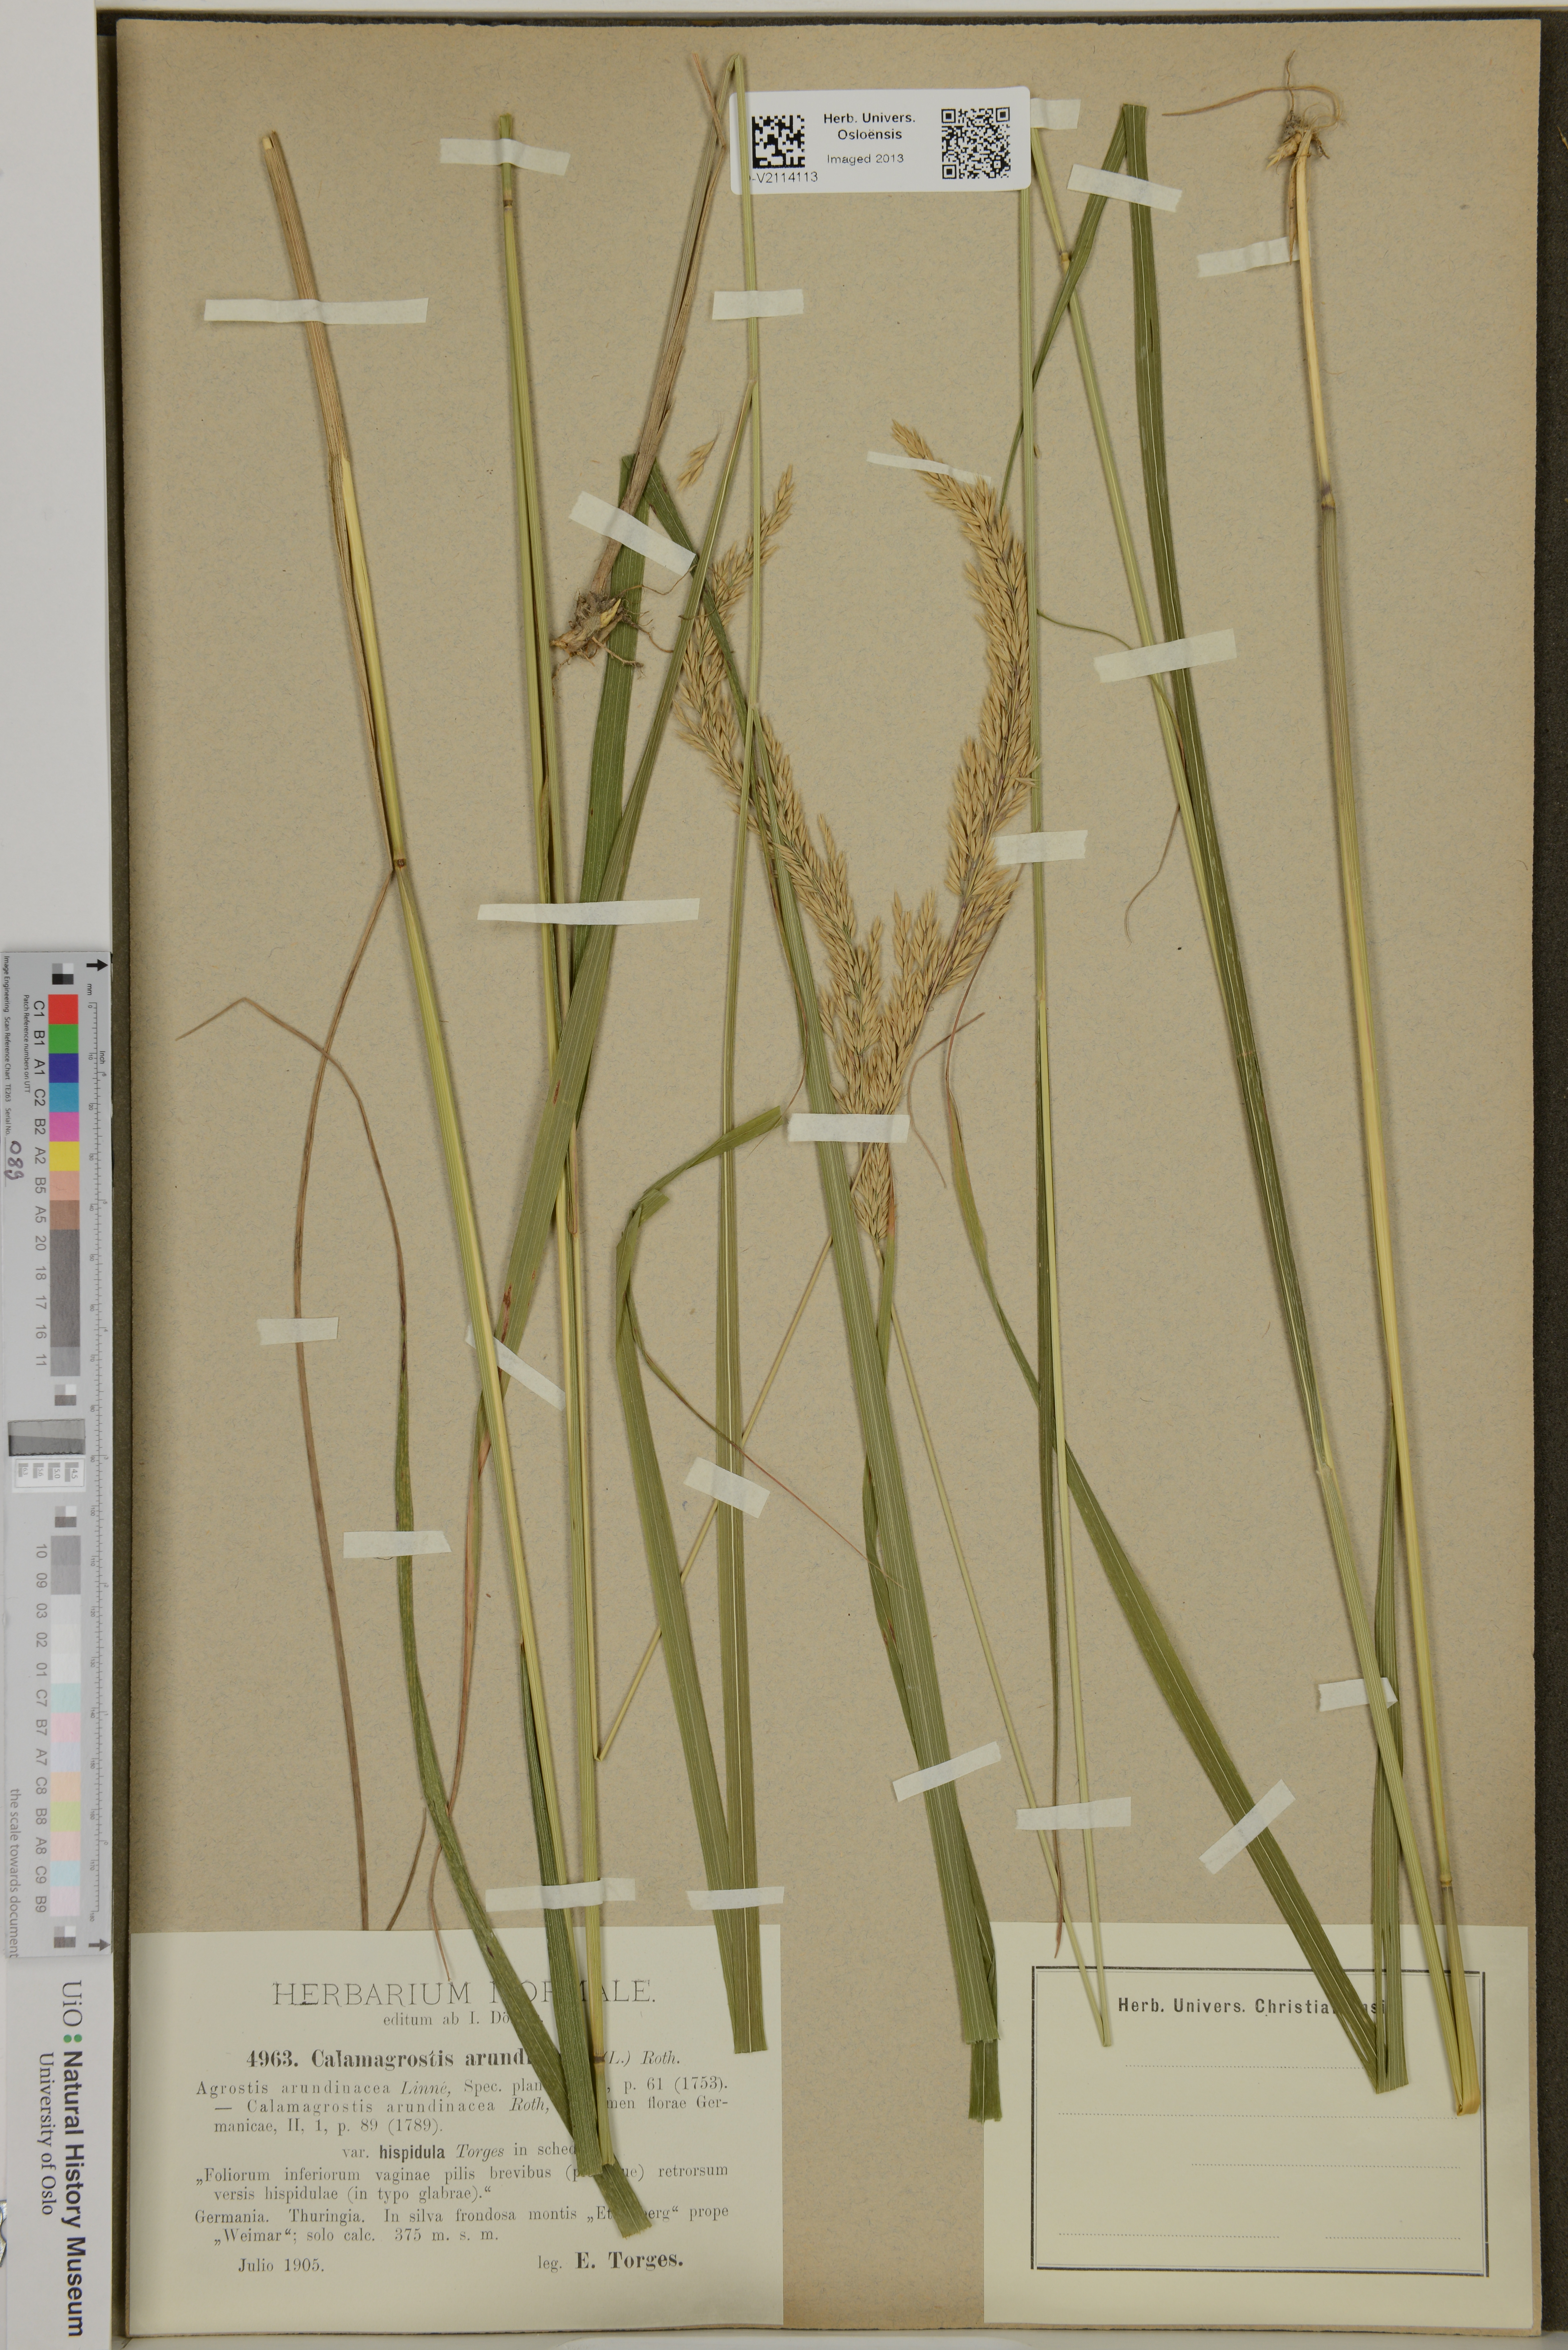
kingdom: Plantae
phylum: Tracheophyta
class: Liliopsida
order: Poales
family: Poaceae
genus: Calamagrostis
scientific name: Calamagrostis arundinacea
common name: Metskastik
